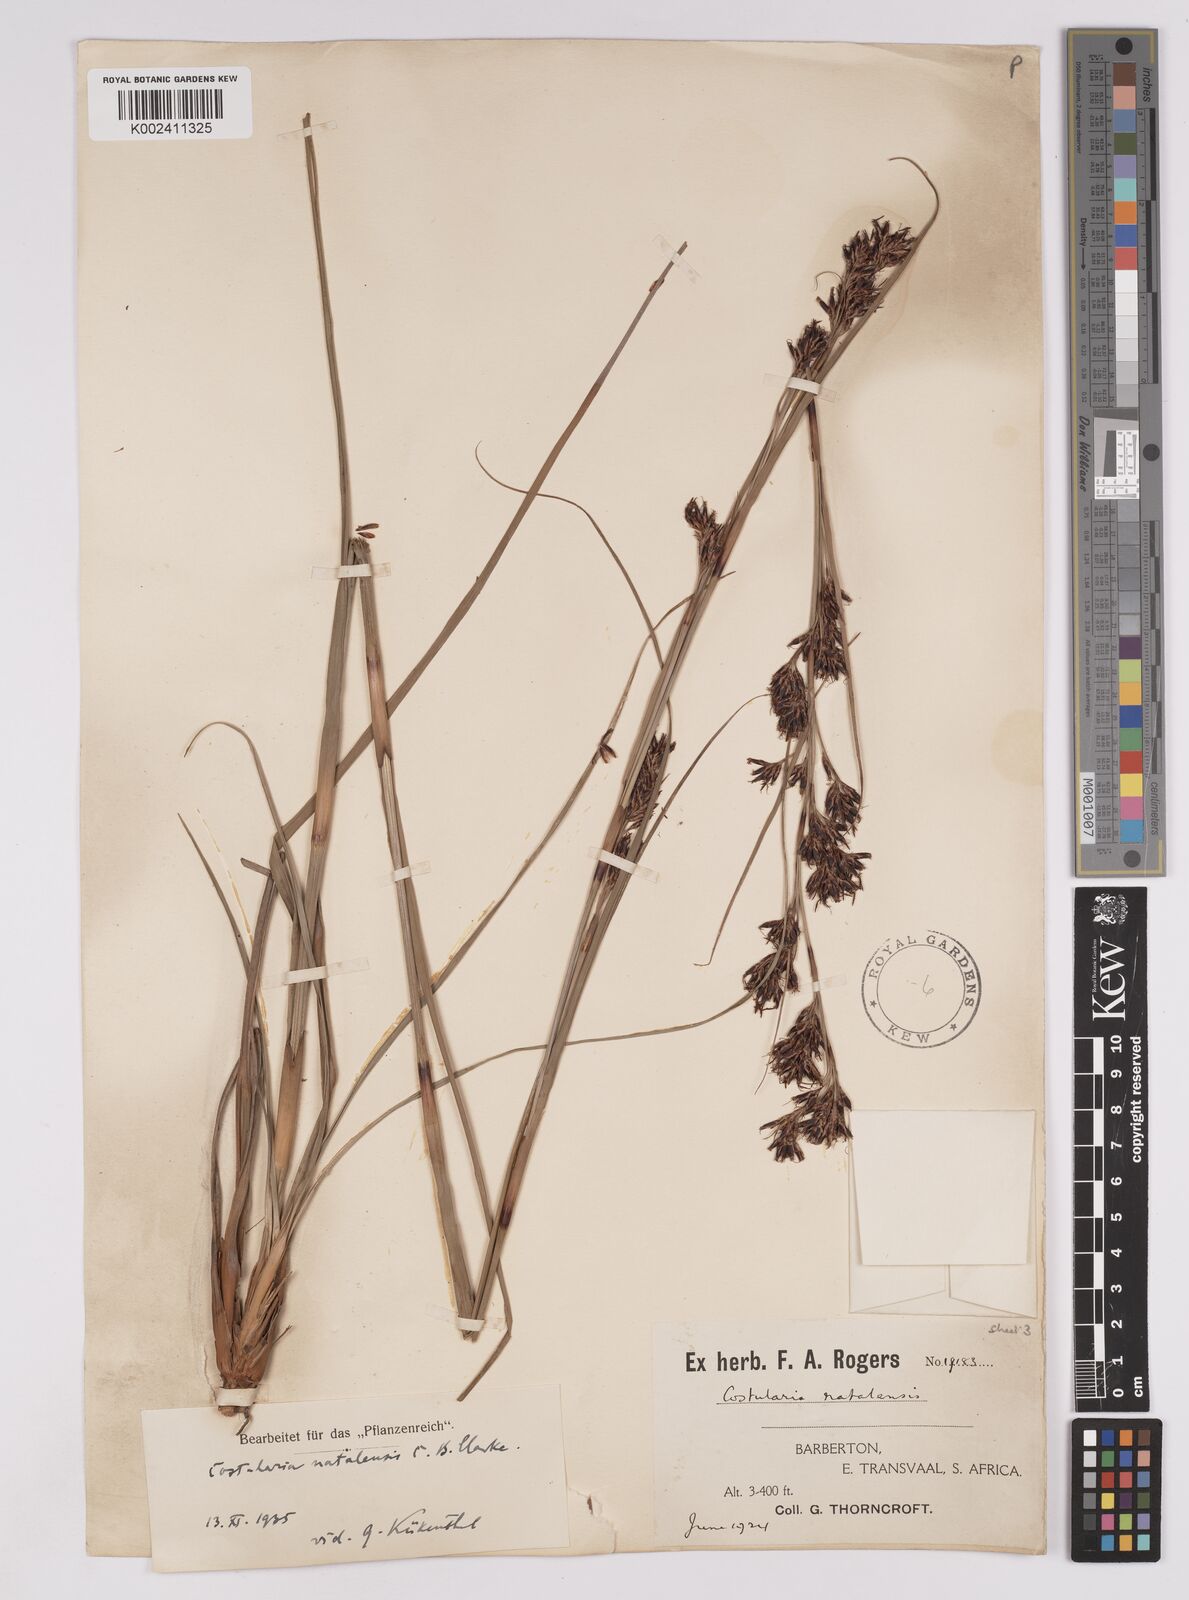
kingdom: Plantae
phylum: Tracheophyta
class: Liliopsida
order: Poales
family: Cyperaceae
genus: Costularia
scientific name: Costularia natalensis
